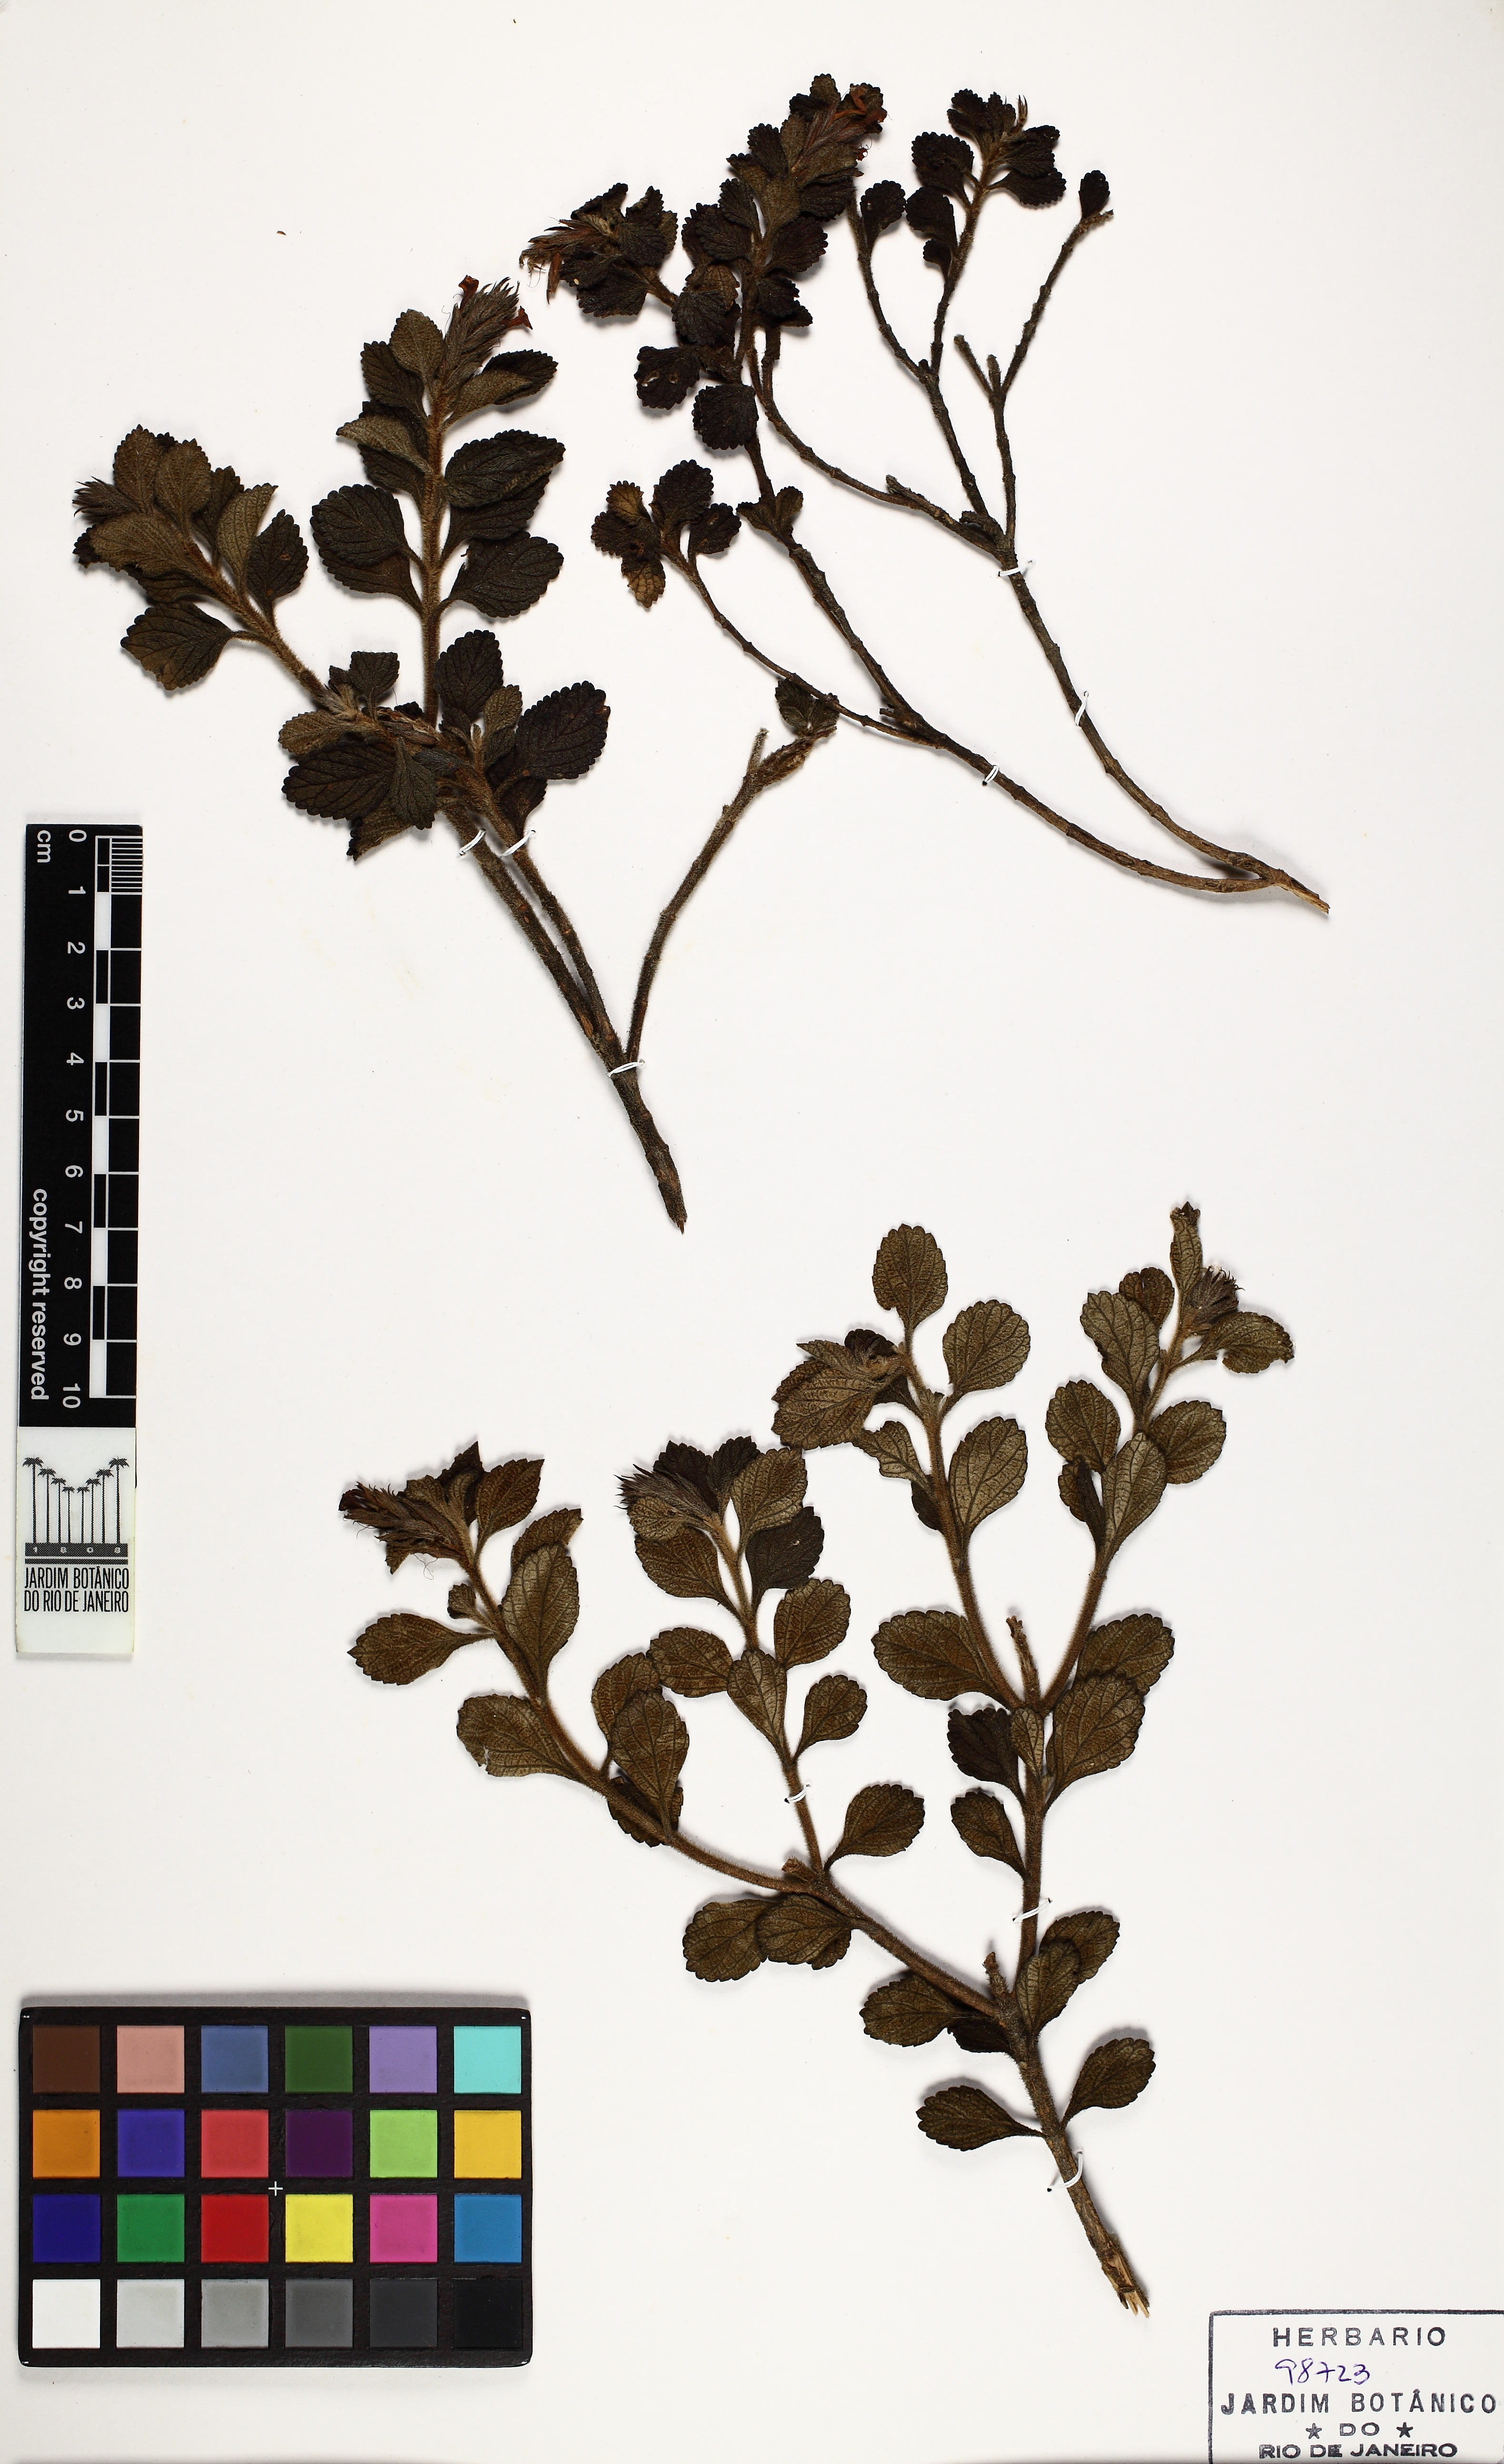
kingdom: Plantae
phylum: Tracheophyta
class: Magnoliopsida
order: Lamiales
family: Verbenaceae
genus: Stachytarpheta
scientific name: Stachytarpheta commutata
